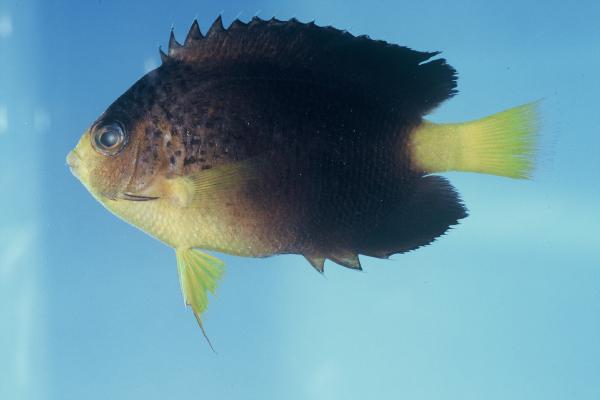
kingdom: Animalia
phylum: Chordata
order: Perciformes
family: Pomacanthidae
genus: Centropyge
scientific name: Centropyge debelius
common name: Blue mauritius angelfish
